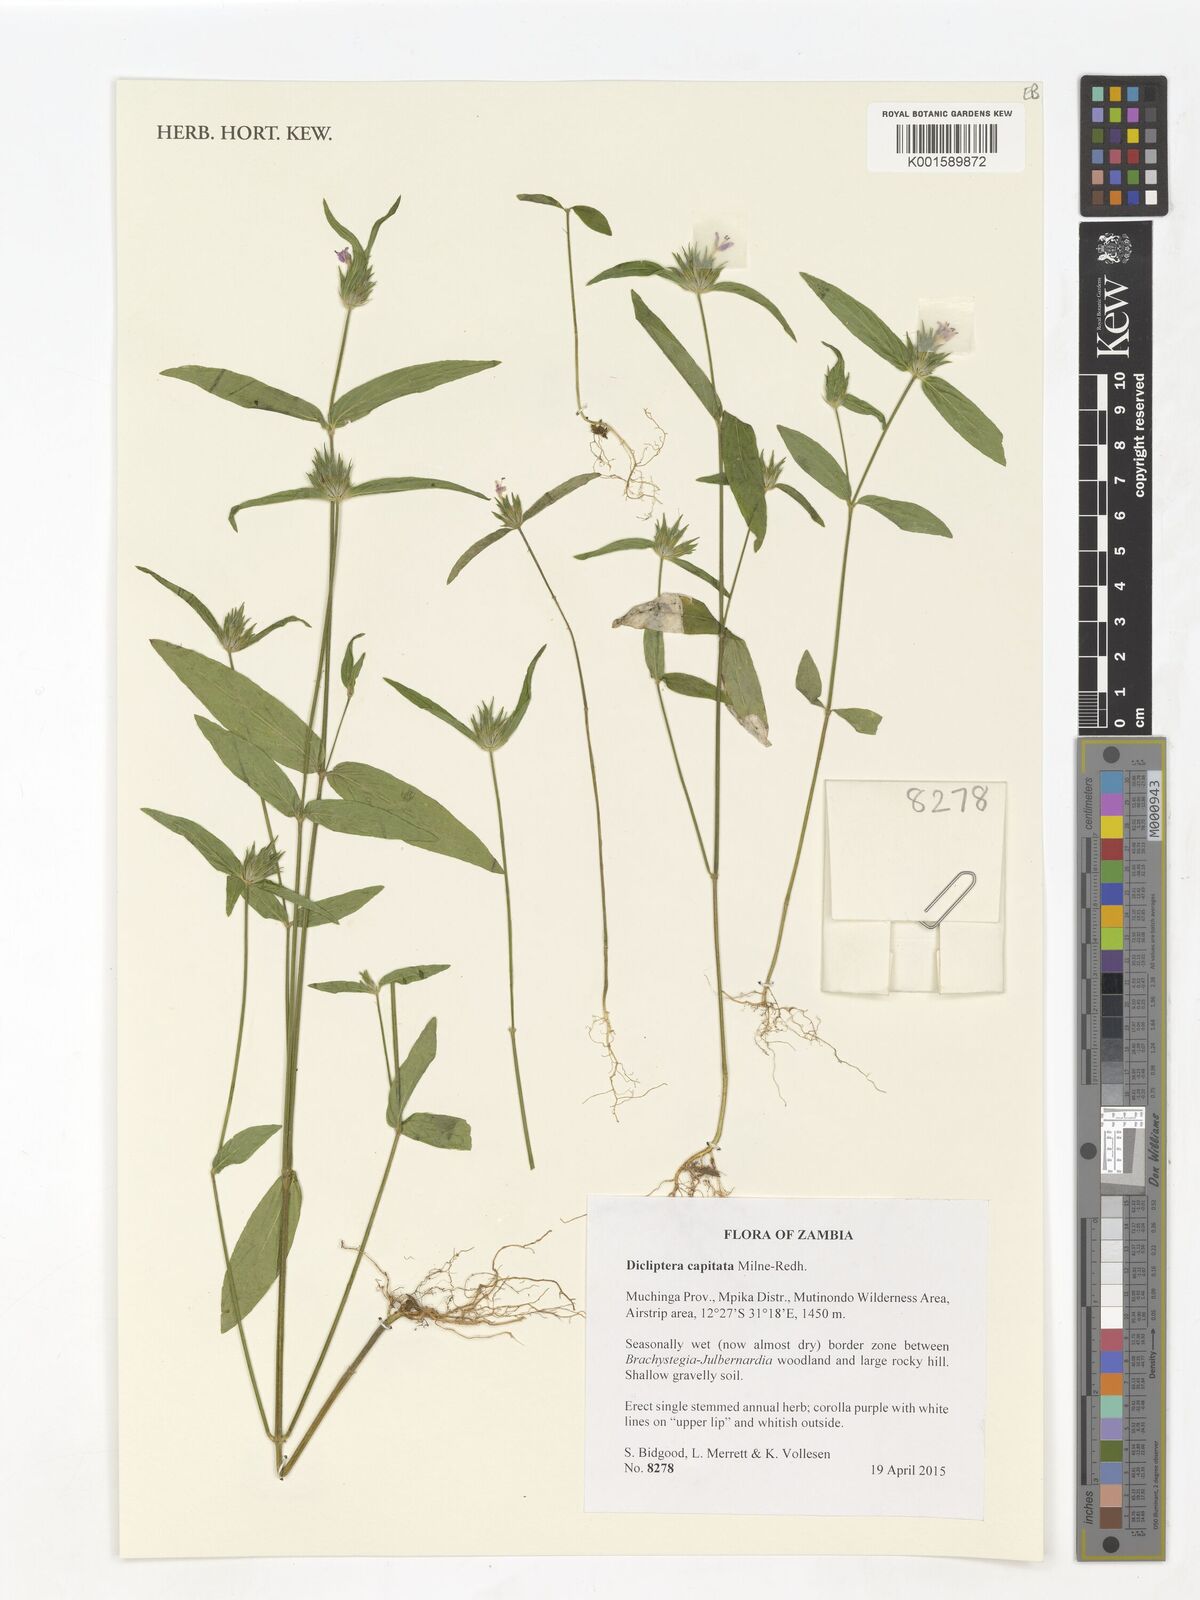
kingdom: Plantae
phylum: Tracheophyta
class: Magnoliopsida
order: Lamiales
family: Acanthaceae
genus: Dicliptera
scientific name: Dicliptera capitata
